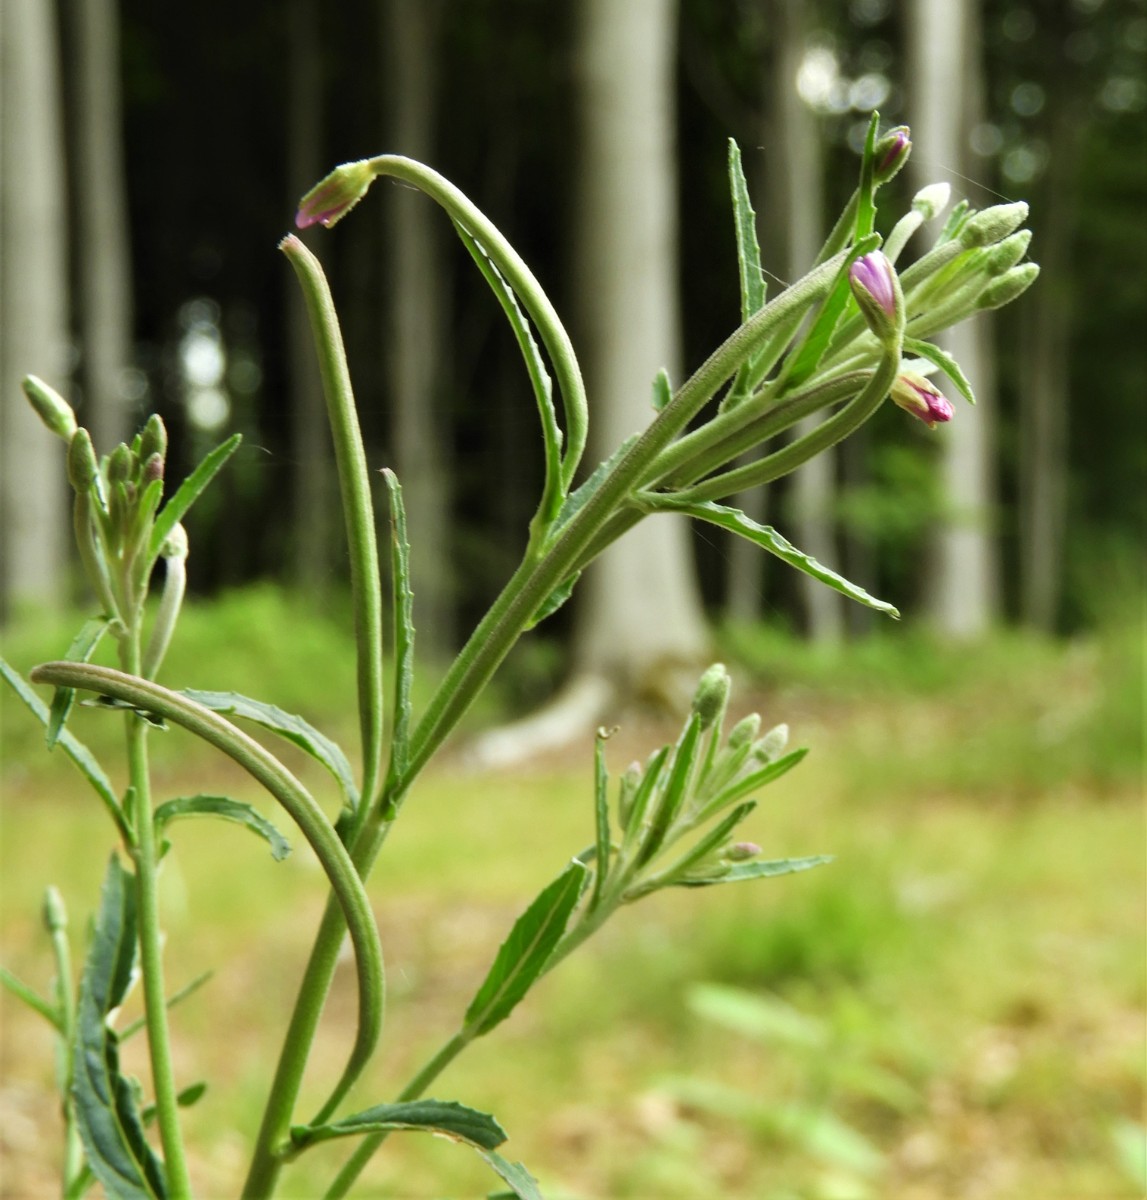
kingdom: Fungi
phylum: Basidiomycota
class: Pucciniomycetes
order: Pucciniales
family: Pucciniastraceae
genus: Pucciniastrum
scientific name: Pucciniastrum epilobii
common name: dueurt-nålerust
